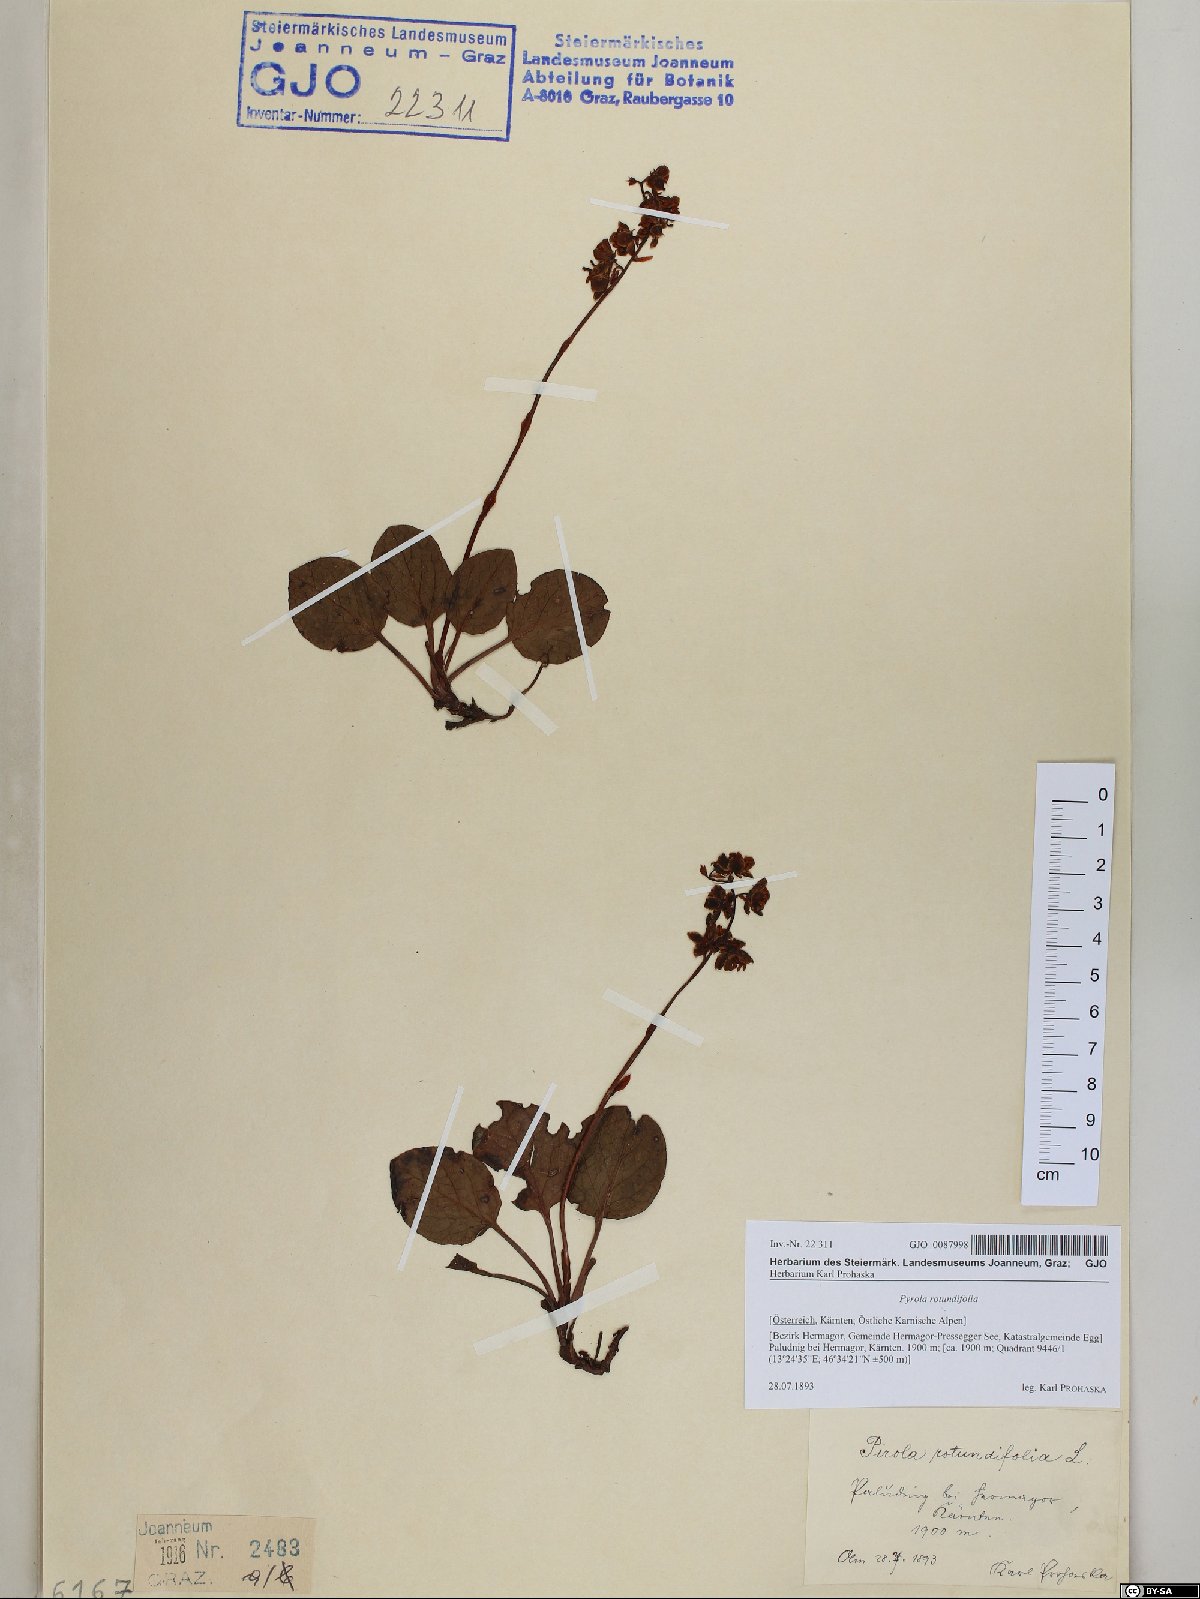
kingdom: Plantae
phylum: Tracheophyta
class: Magnoliopsida
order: Ericales
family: Ericaceae
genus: Pyrola
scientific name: Pyrola rotundifolia
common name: Round-leaved wintergreen
